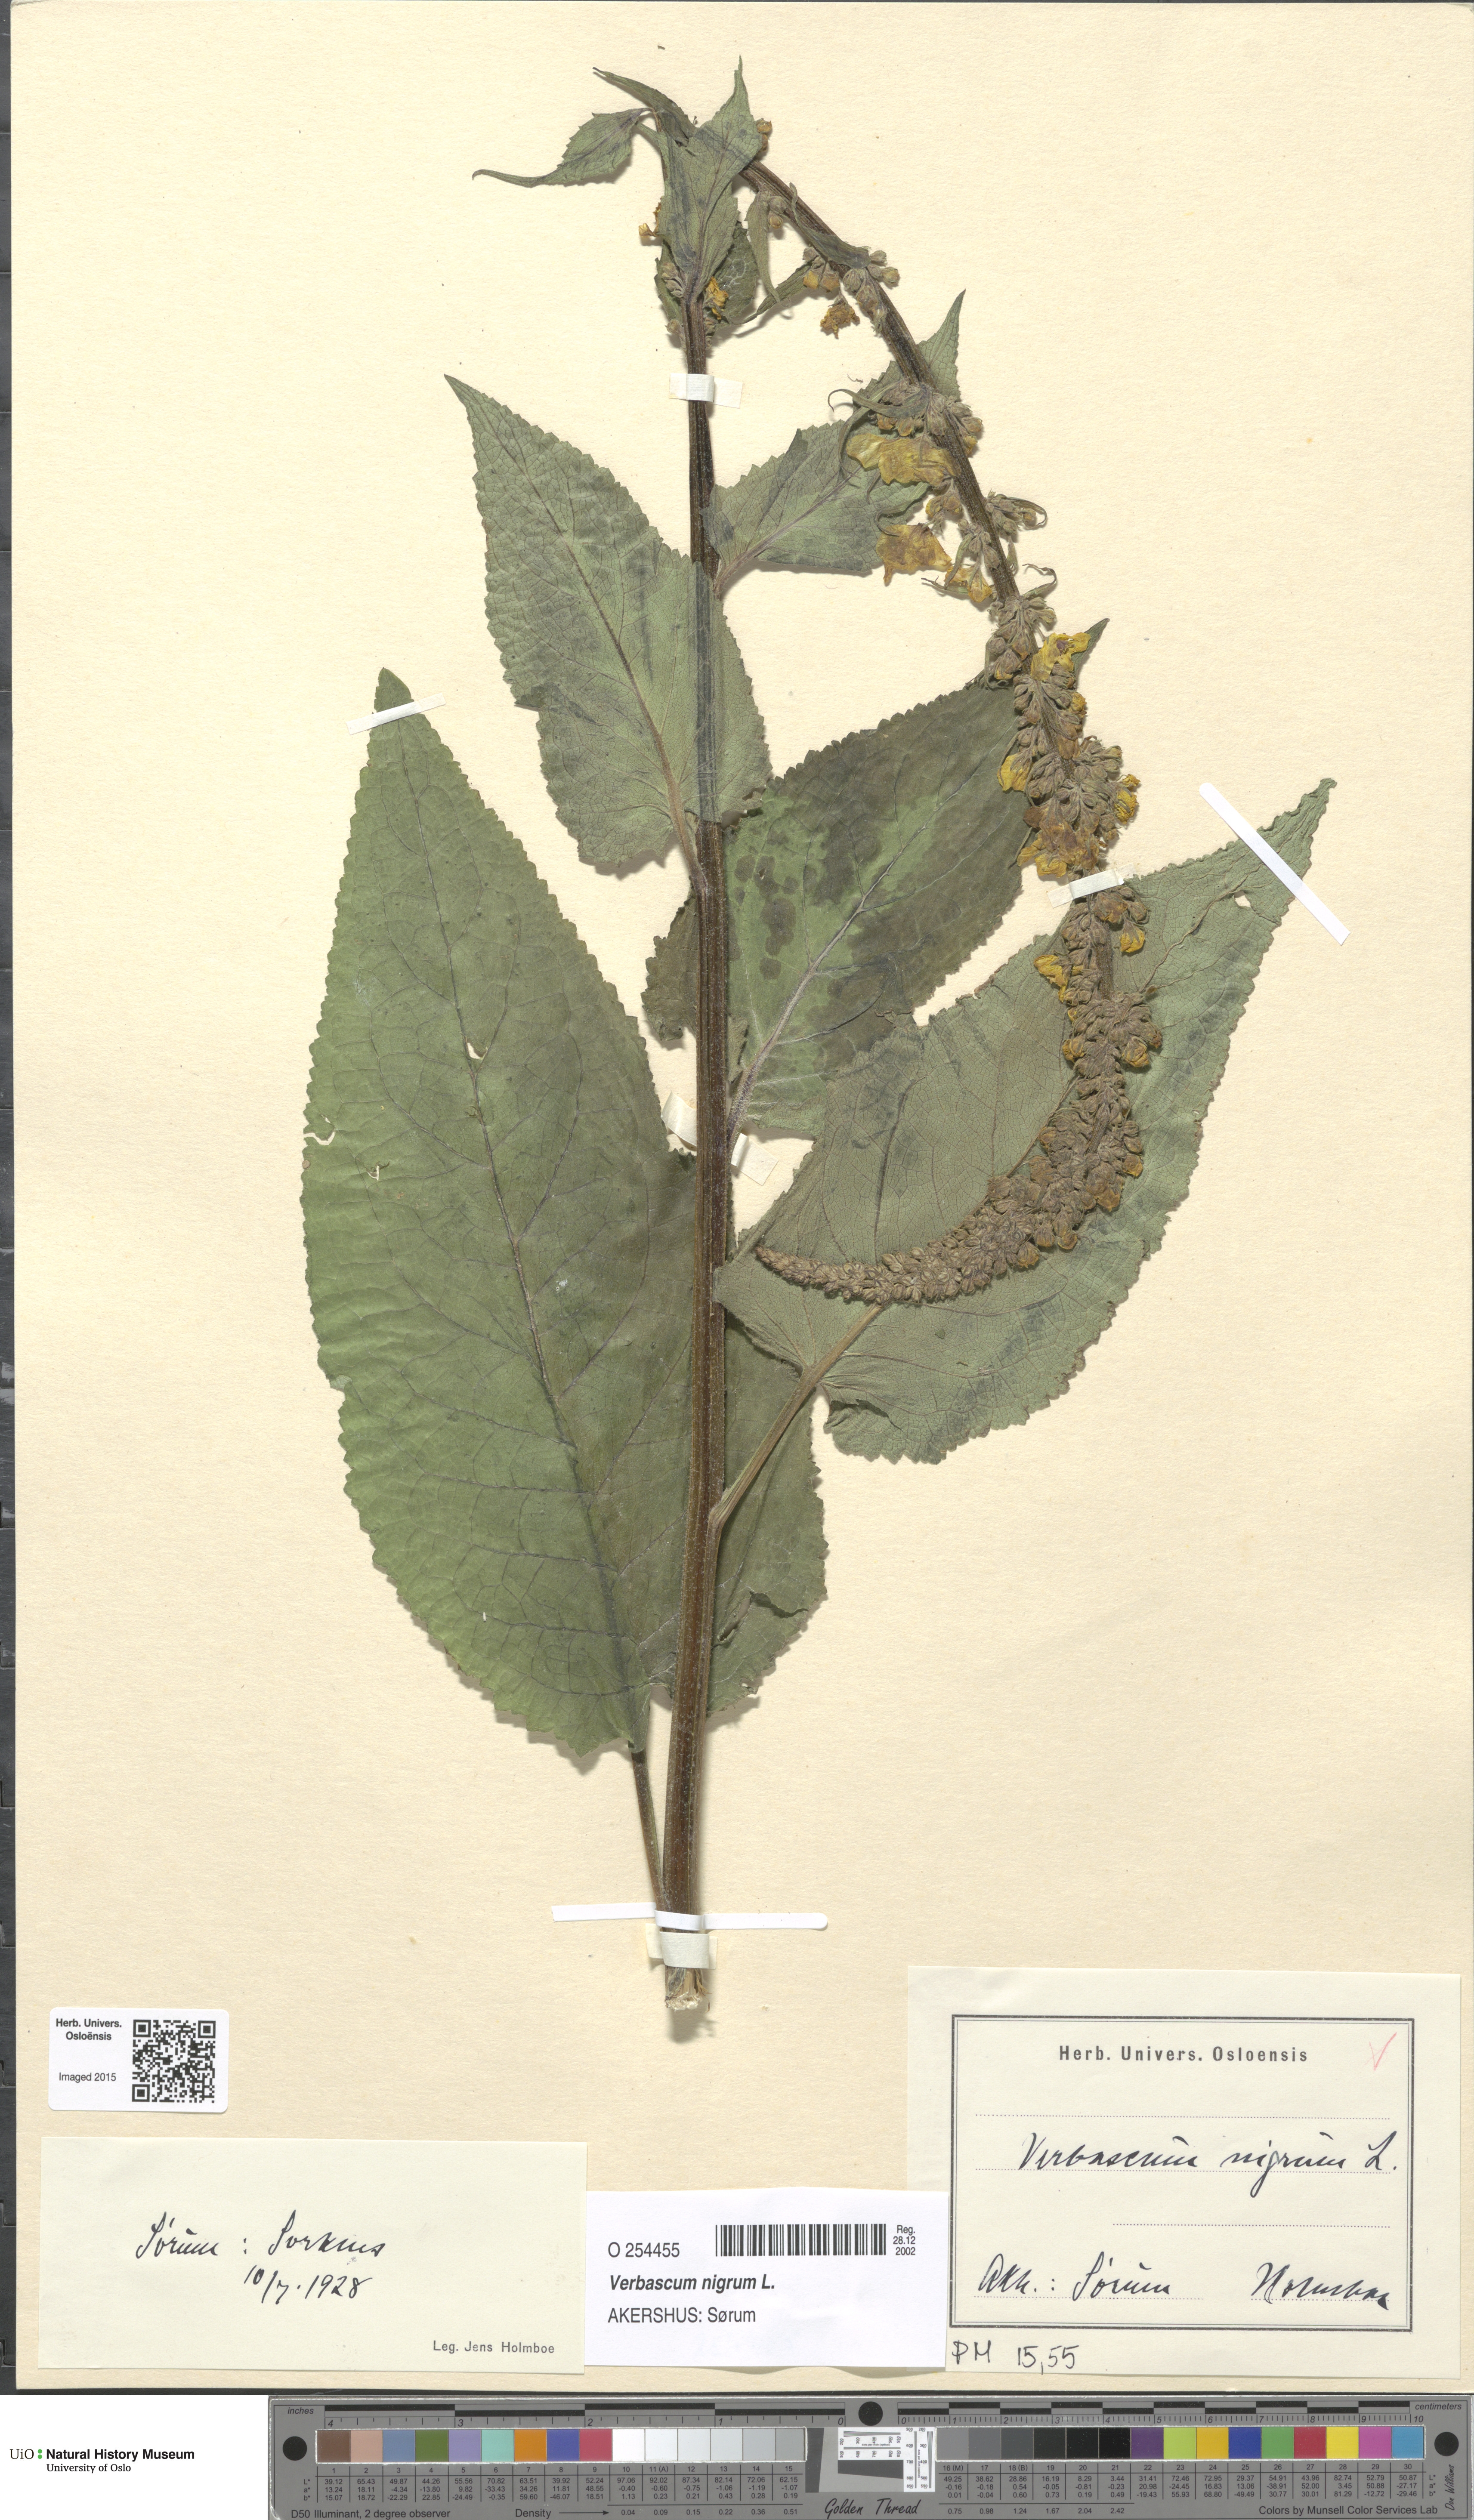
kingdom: Plantae
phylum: Tracheophyta
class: Magnoliopsida
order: Lamiales
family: Scrophulariaceae
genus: Verbascum
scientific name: Verbascum nigrum
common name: Dark mullein
